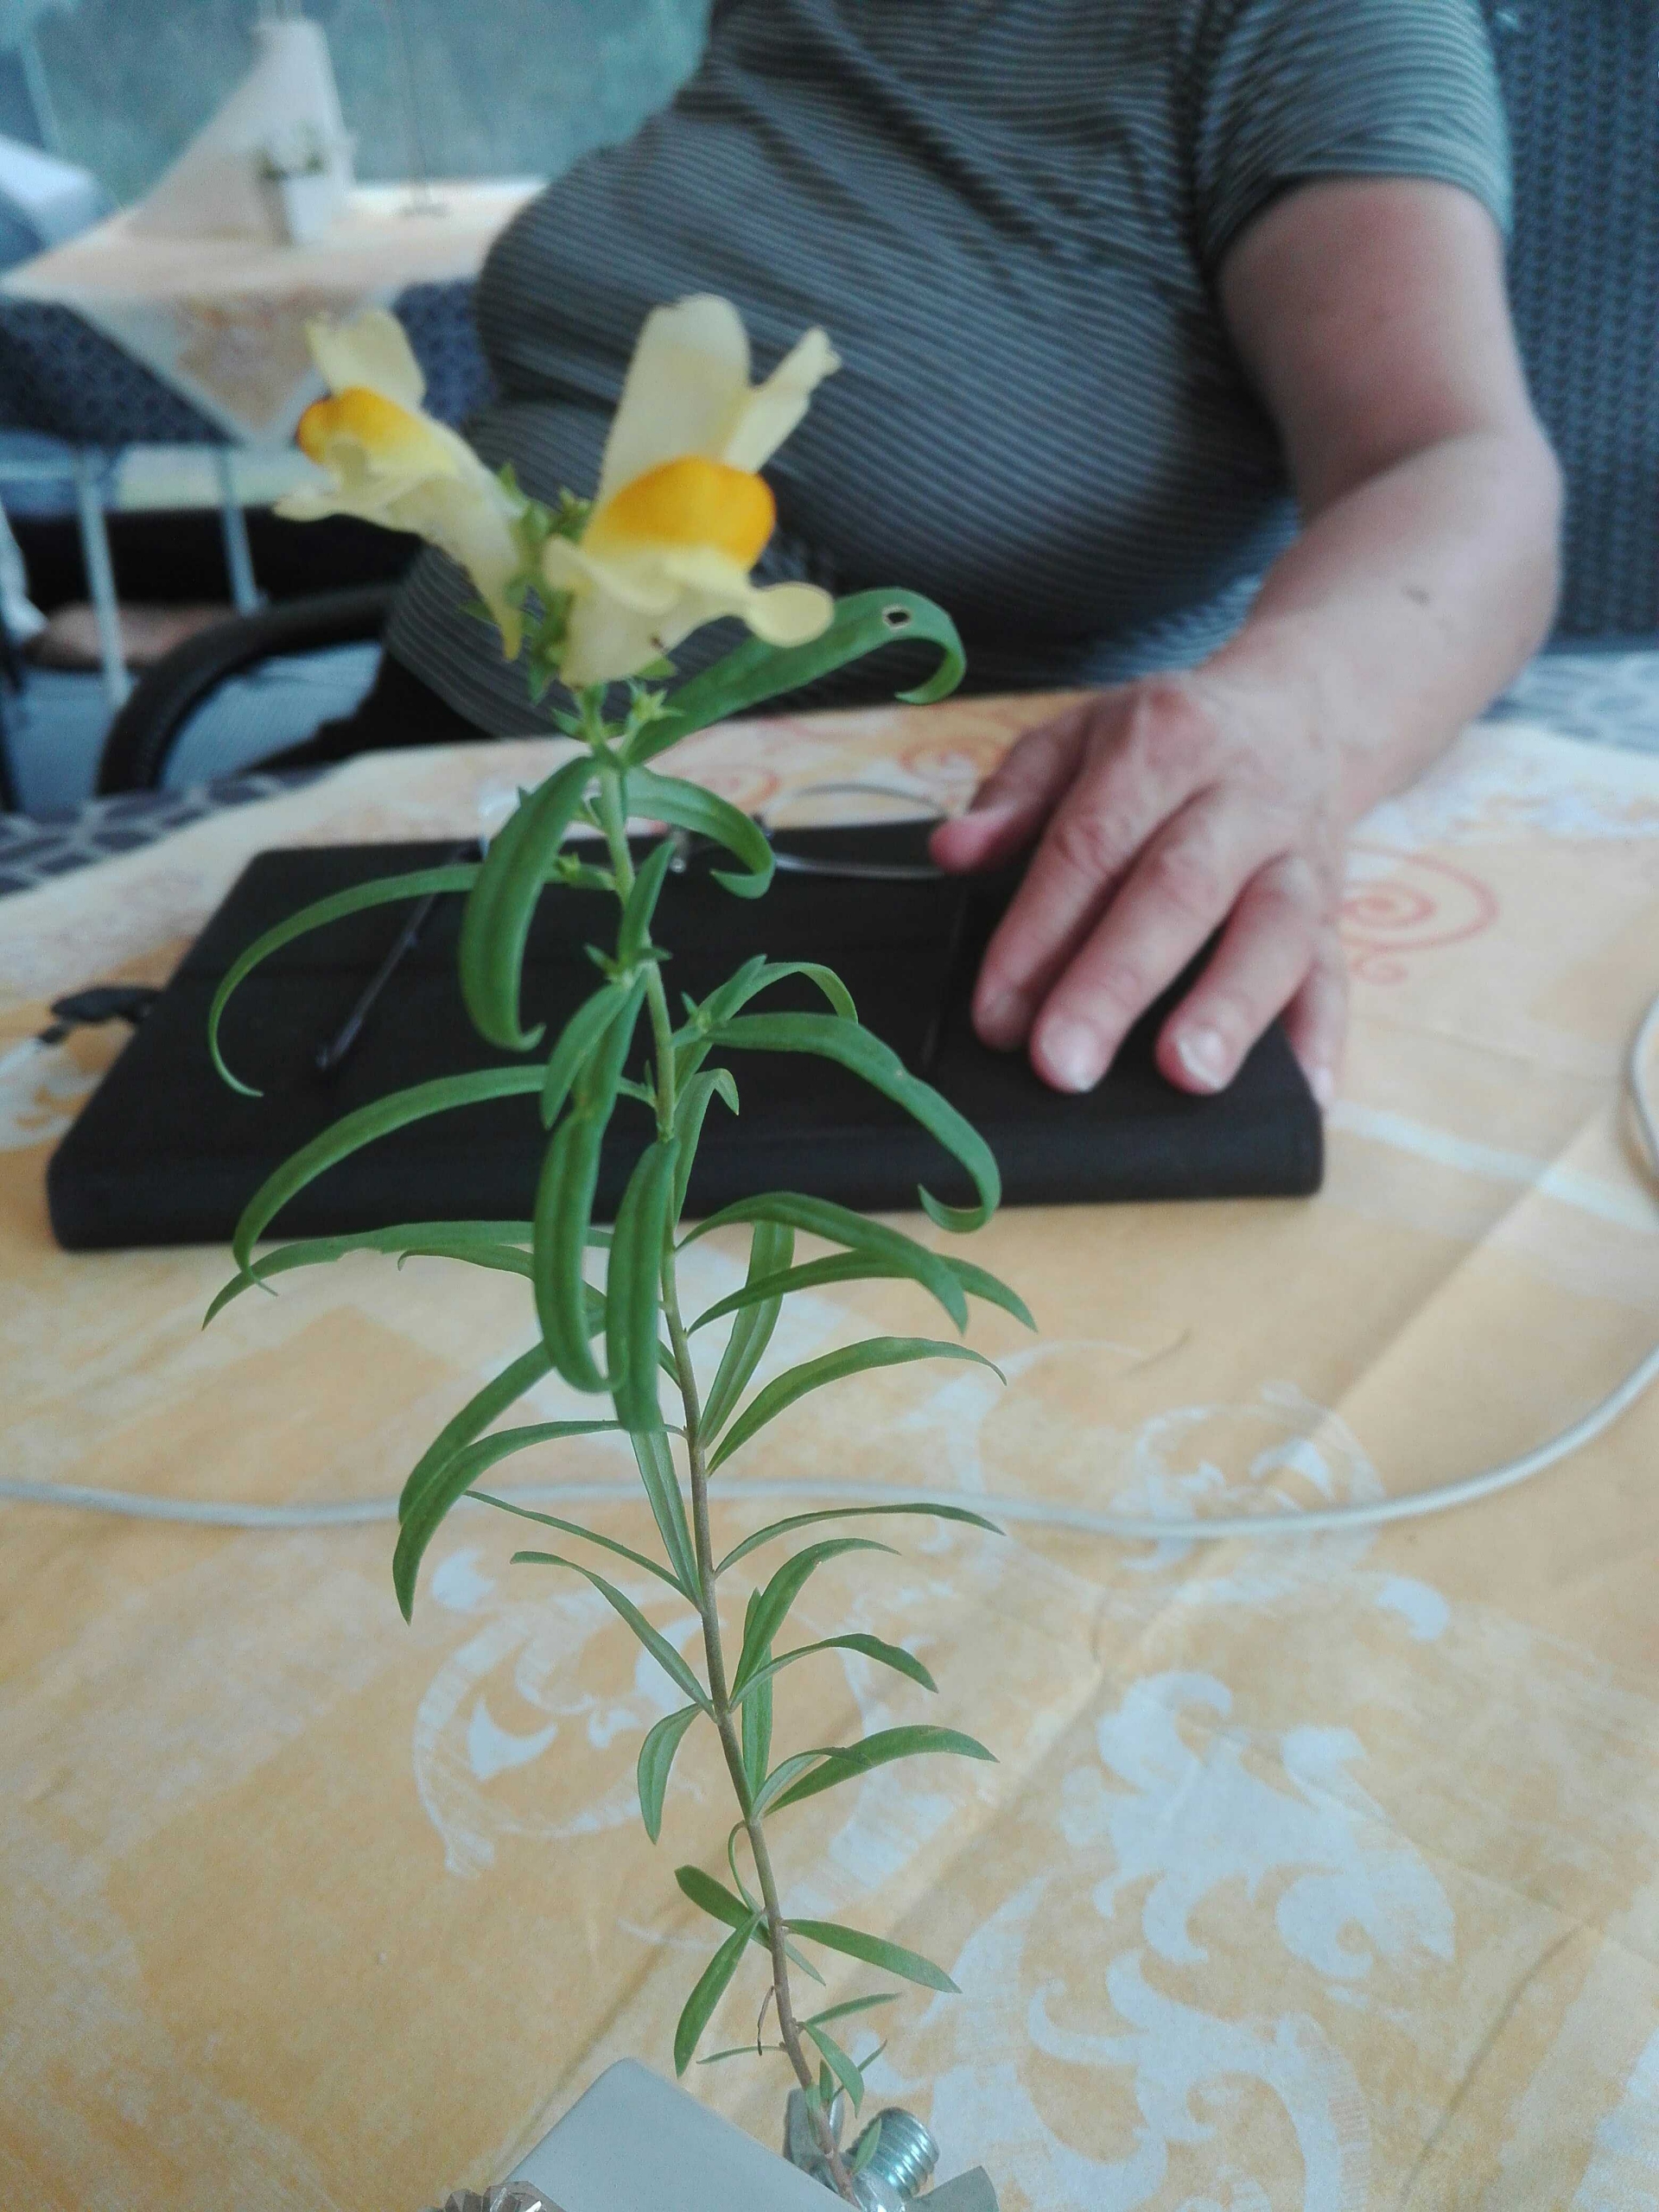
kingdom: Plantae
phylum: Tracheophyta
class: Magnoliopsida
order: Lamiales
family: Plantaginaceae
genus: Linaria
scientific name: Linaria vulgaris
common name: Almindelig torskemund
